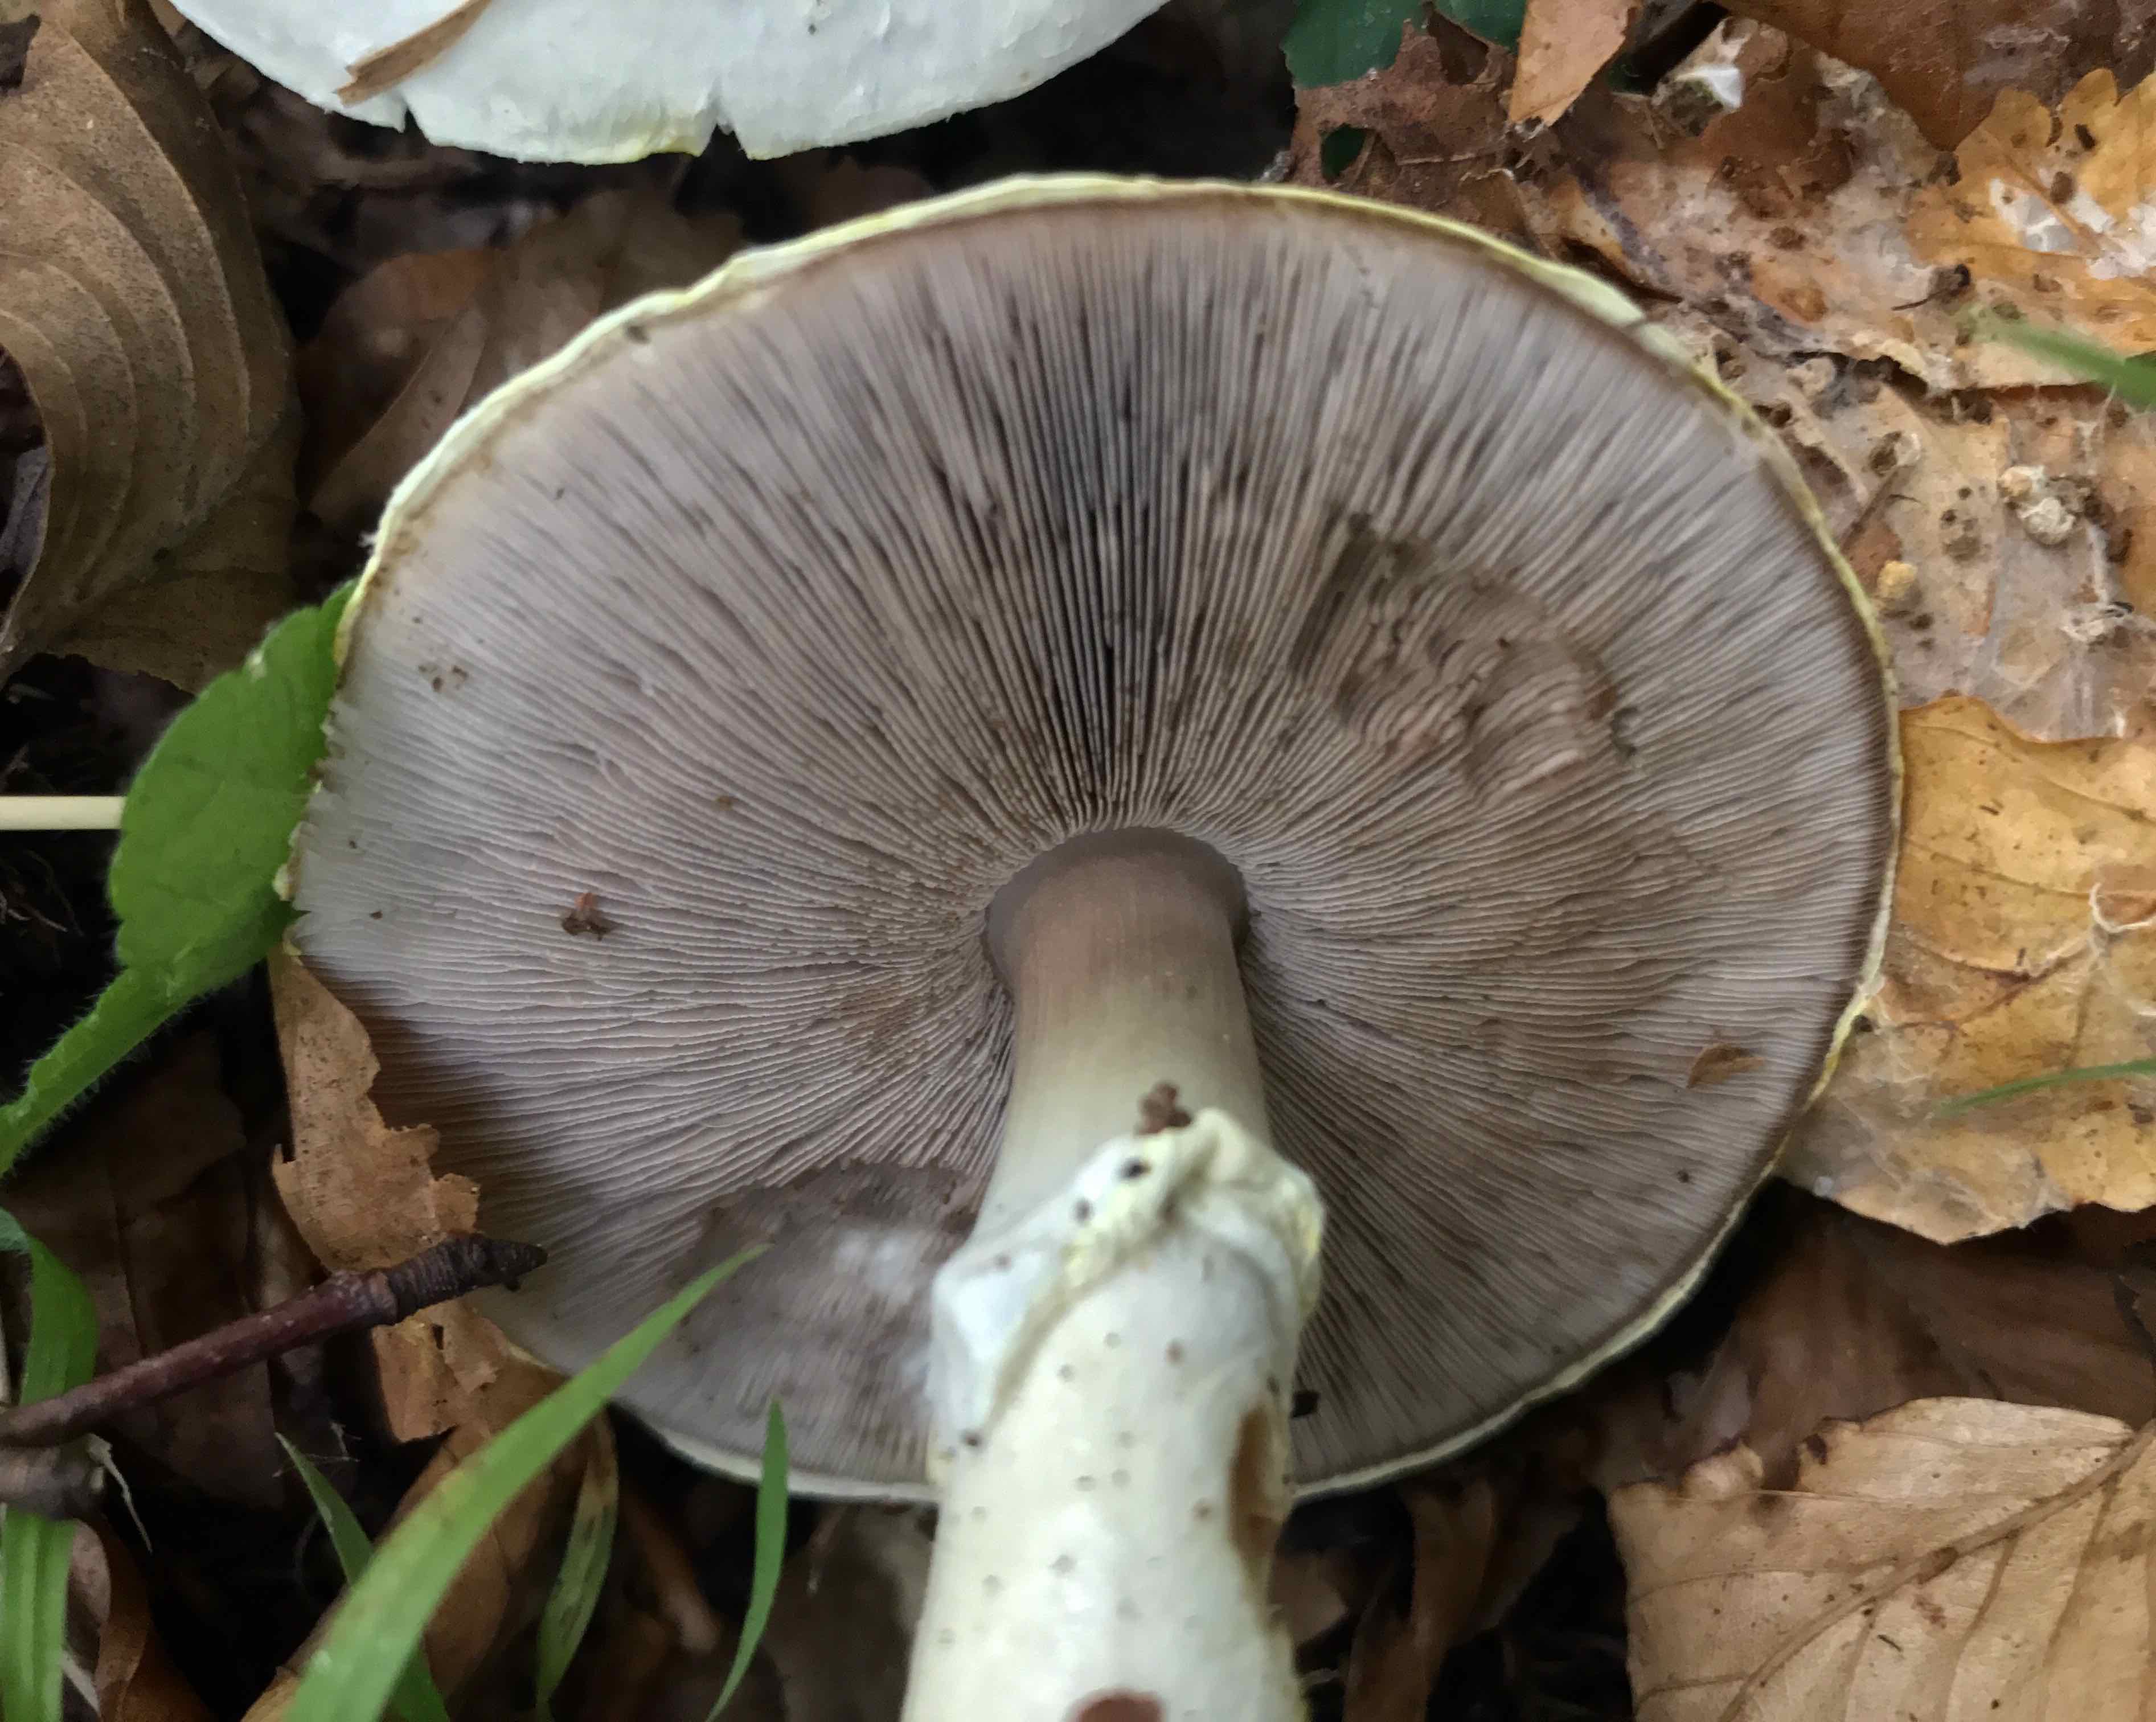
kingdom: Fungi
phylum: Basidiomycota
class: Agaricomycetes
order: Agaricales
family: Agaricaceae
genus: Agaricus
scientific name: Agaricus sylvicola
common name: skiveknoldet champignon
